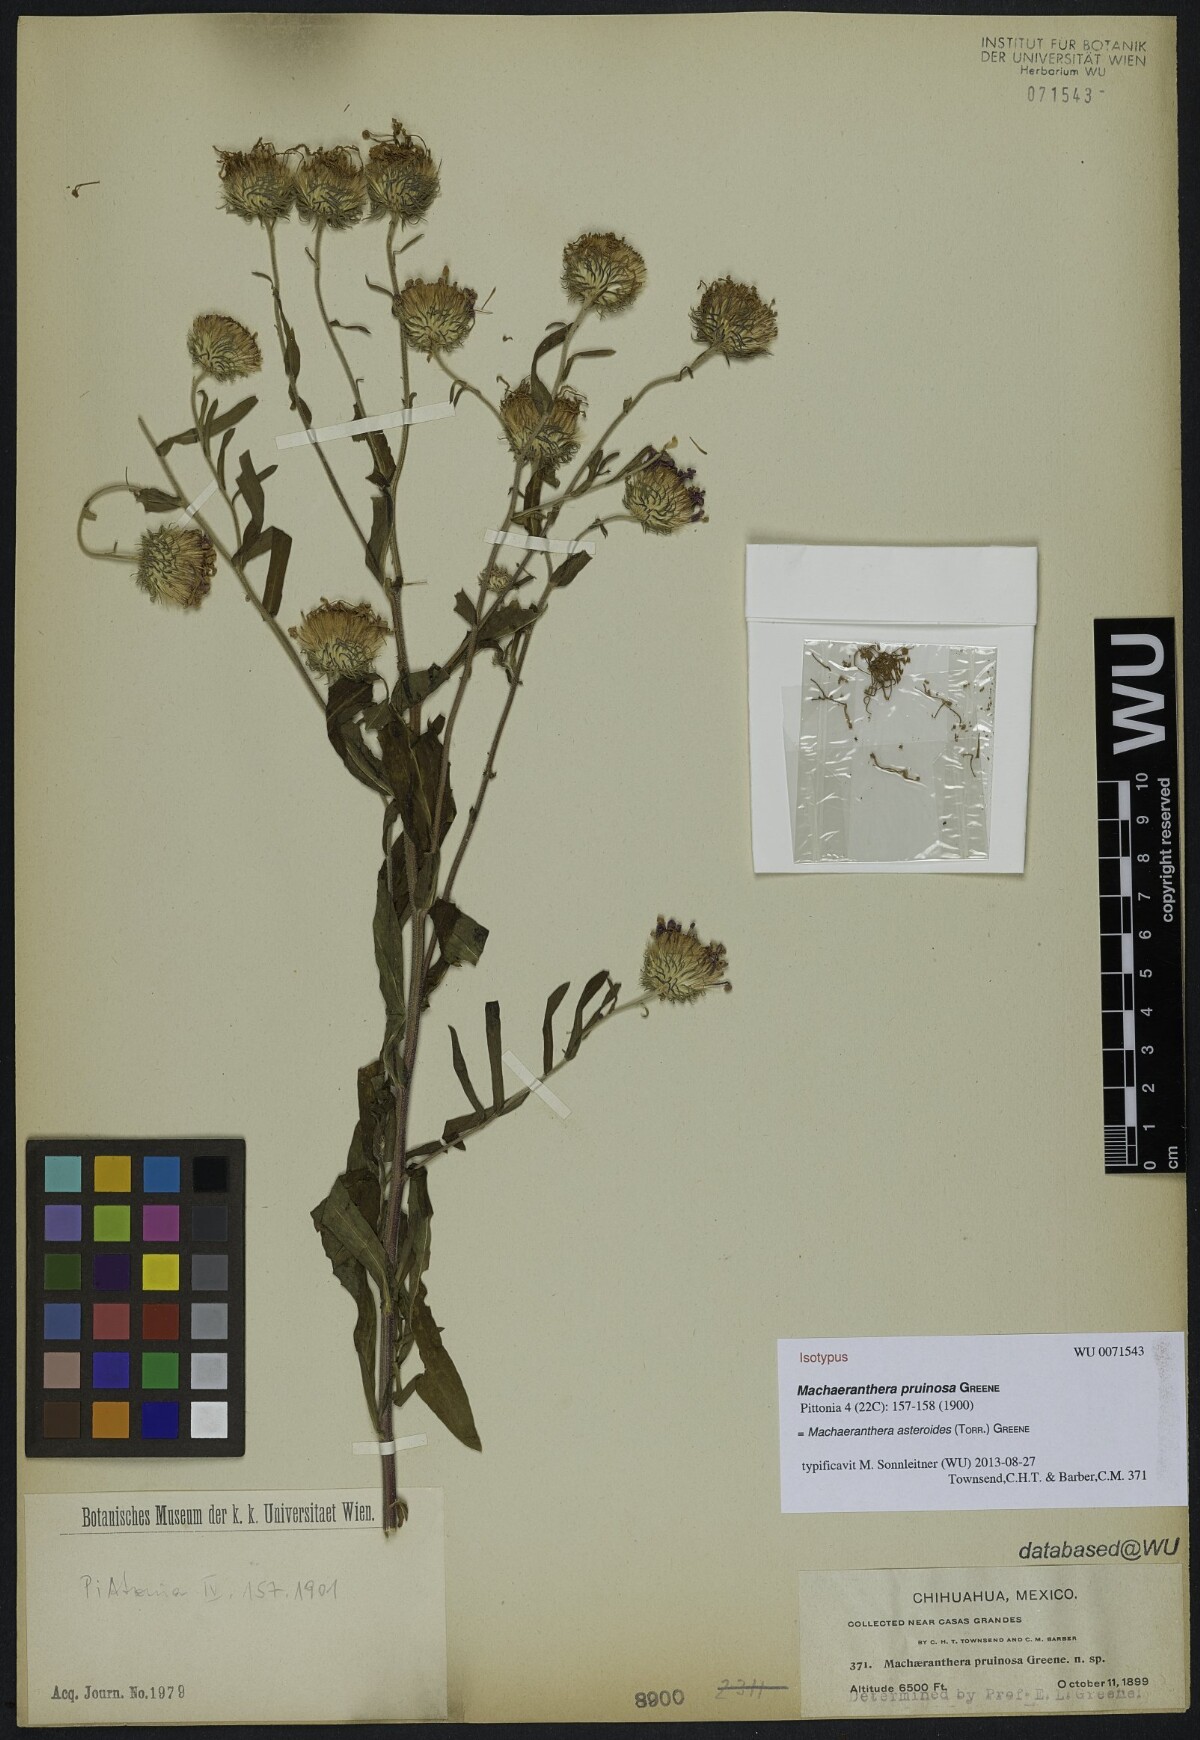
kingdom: Plantae
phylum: Tracheophyta
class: Magnoliopsida
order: Asterales
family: Asteraceae
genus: Dieteria
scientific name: Dieteria asteroides
